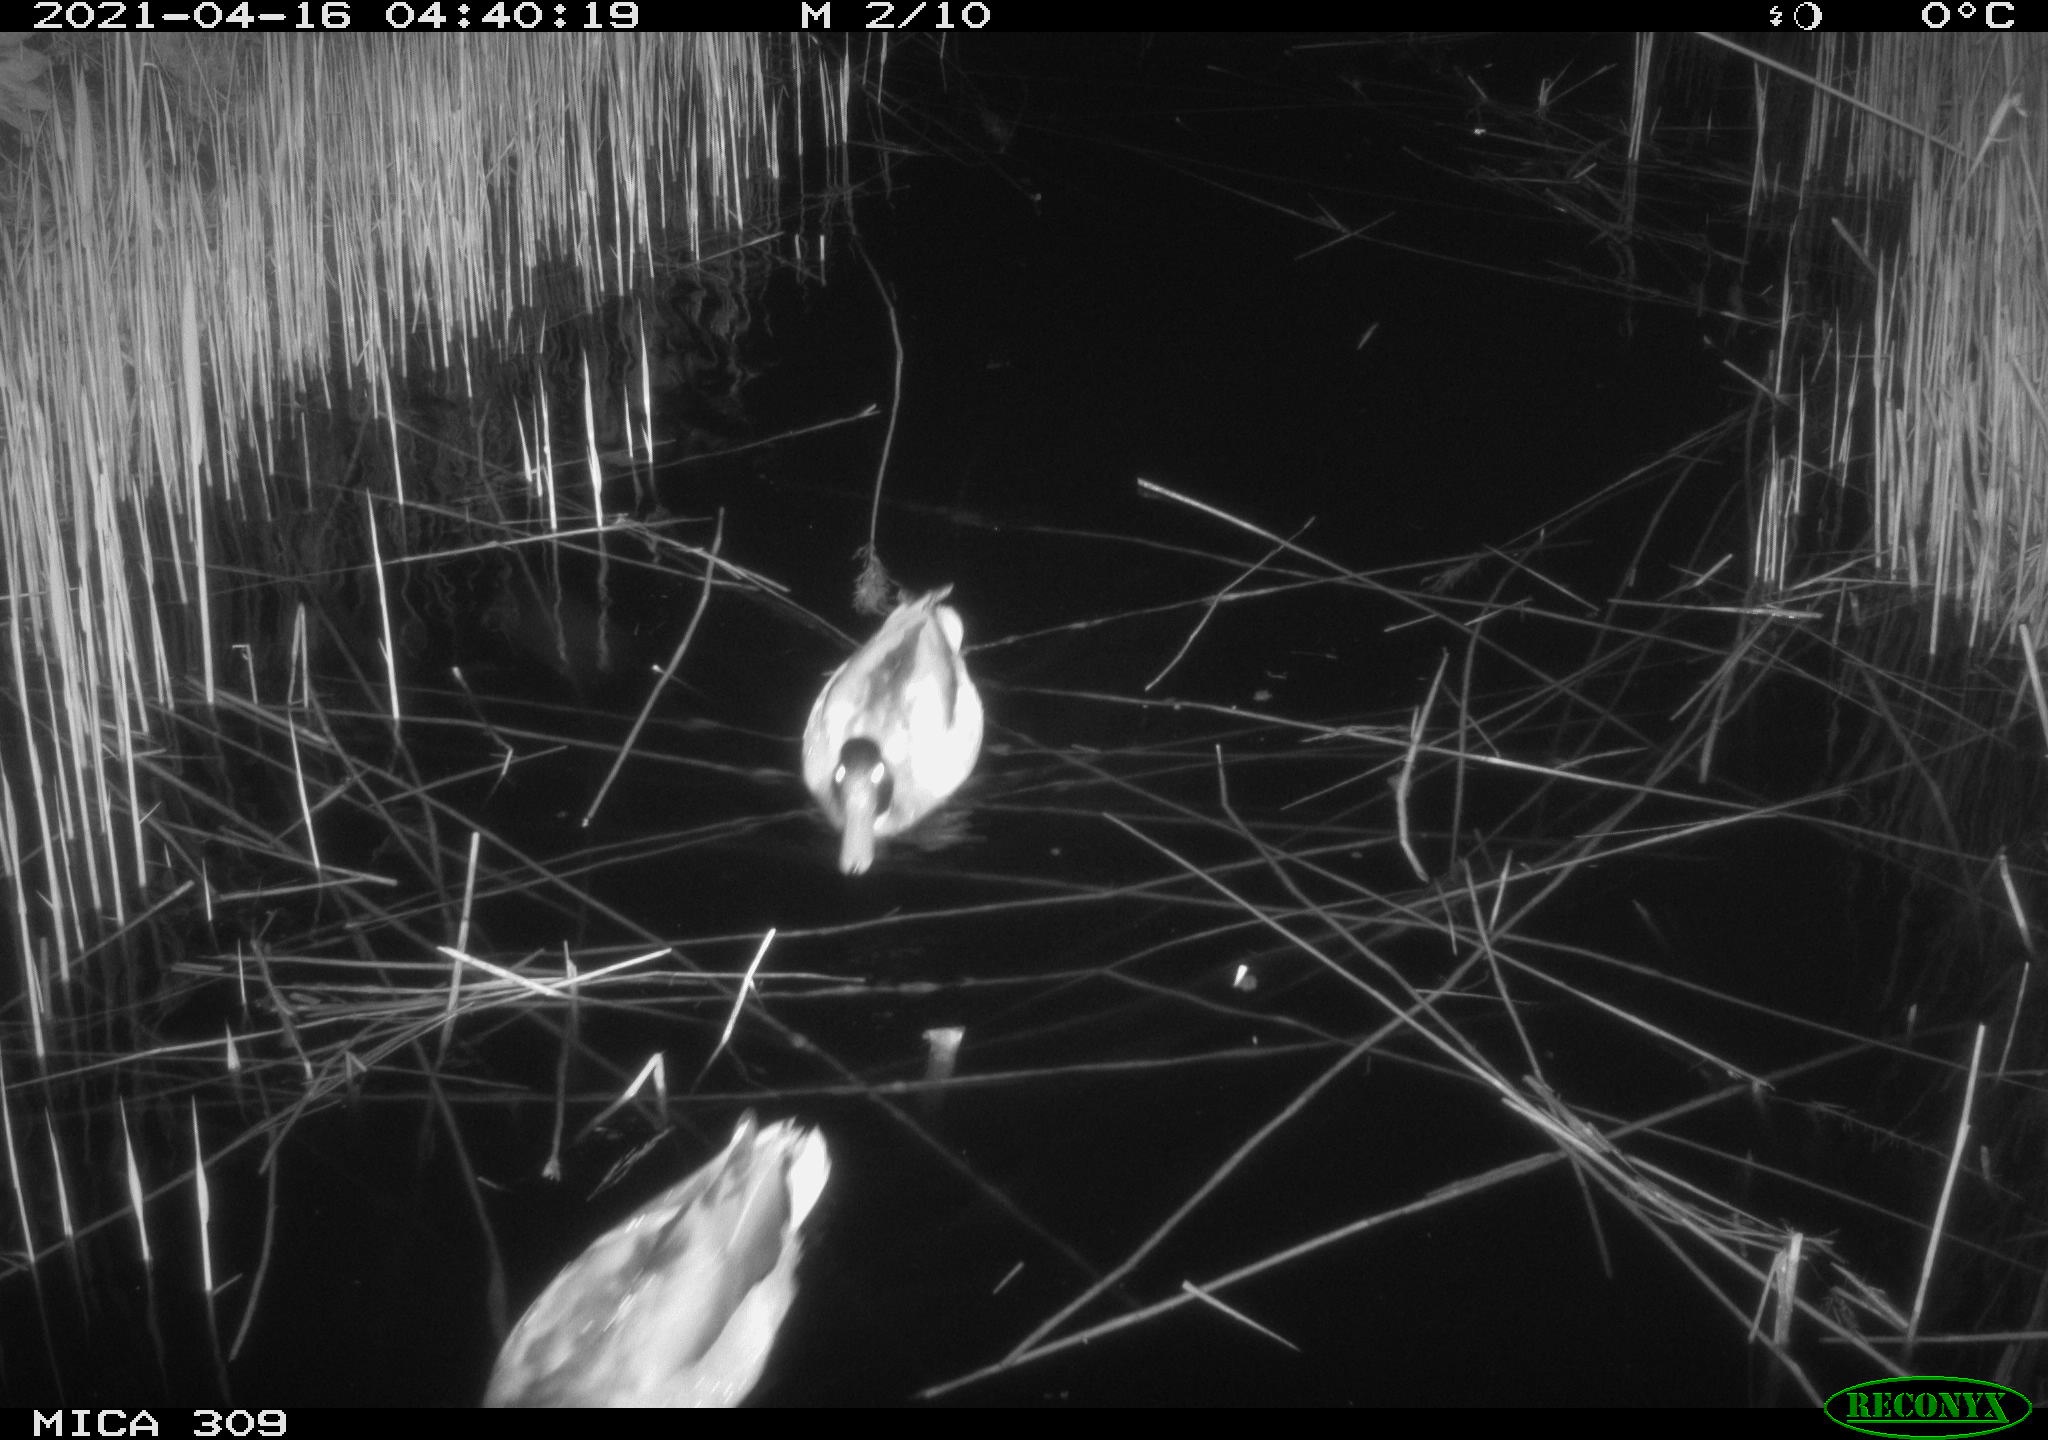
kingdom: Animalia
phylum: Chordata
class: Aves
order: Anseriformes
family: Anatidae
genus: Anas
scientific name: Anas platyrhynchos
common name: Mallard
